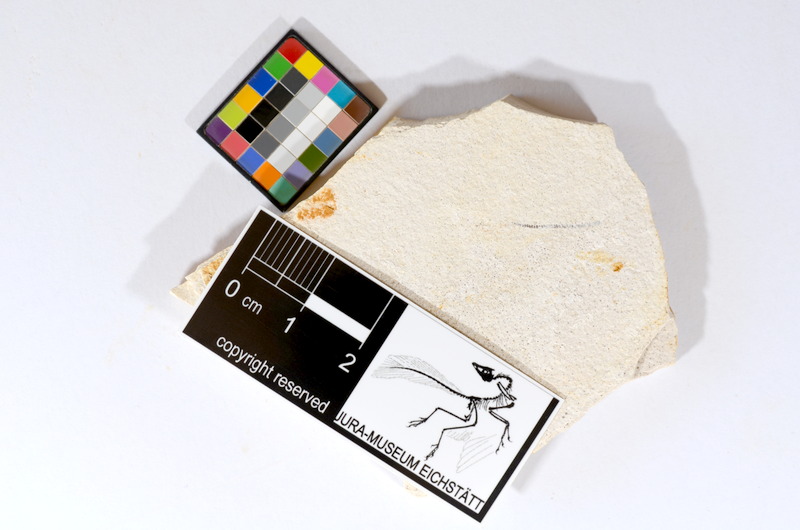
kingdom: Animalia
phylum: Chordata
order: Salmoniformes
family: Orthogonikleithridae
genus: Orthogonikleithrus
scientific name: Orthogonikleithrus hoelli
